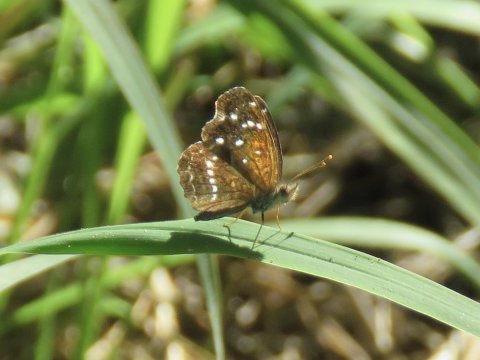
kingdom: Animalia
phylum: Arthropoda
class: Insecta
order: Lepidoptera
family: Nymphalidae
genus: Anthanassa
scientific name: Anthanassa texana
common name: Texan Crescent
